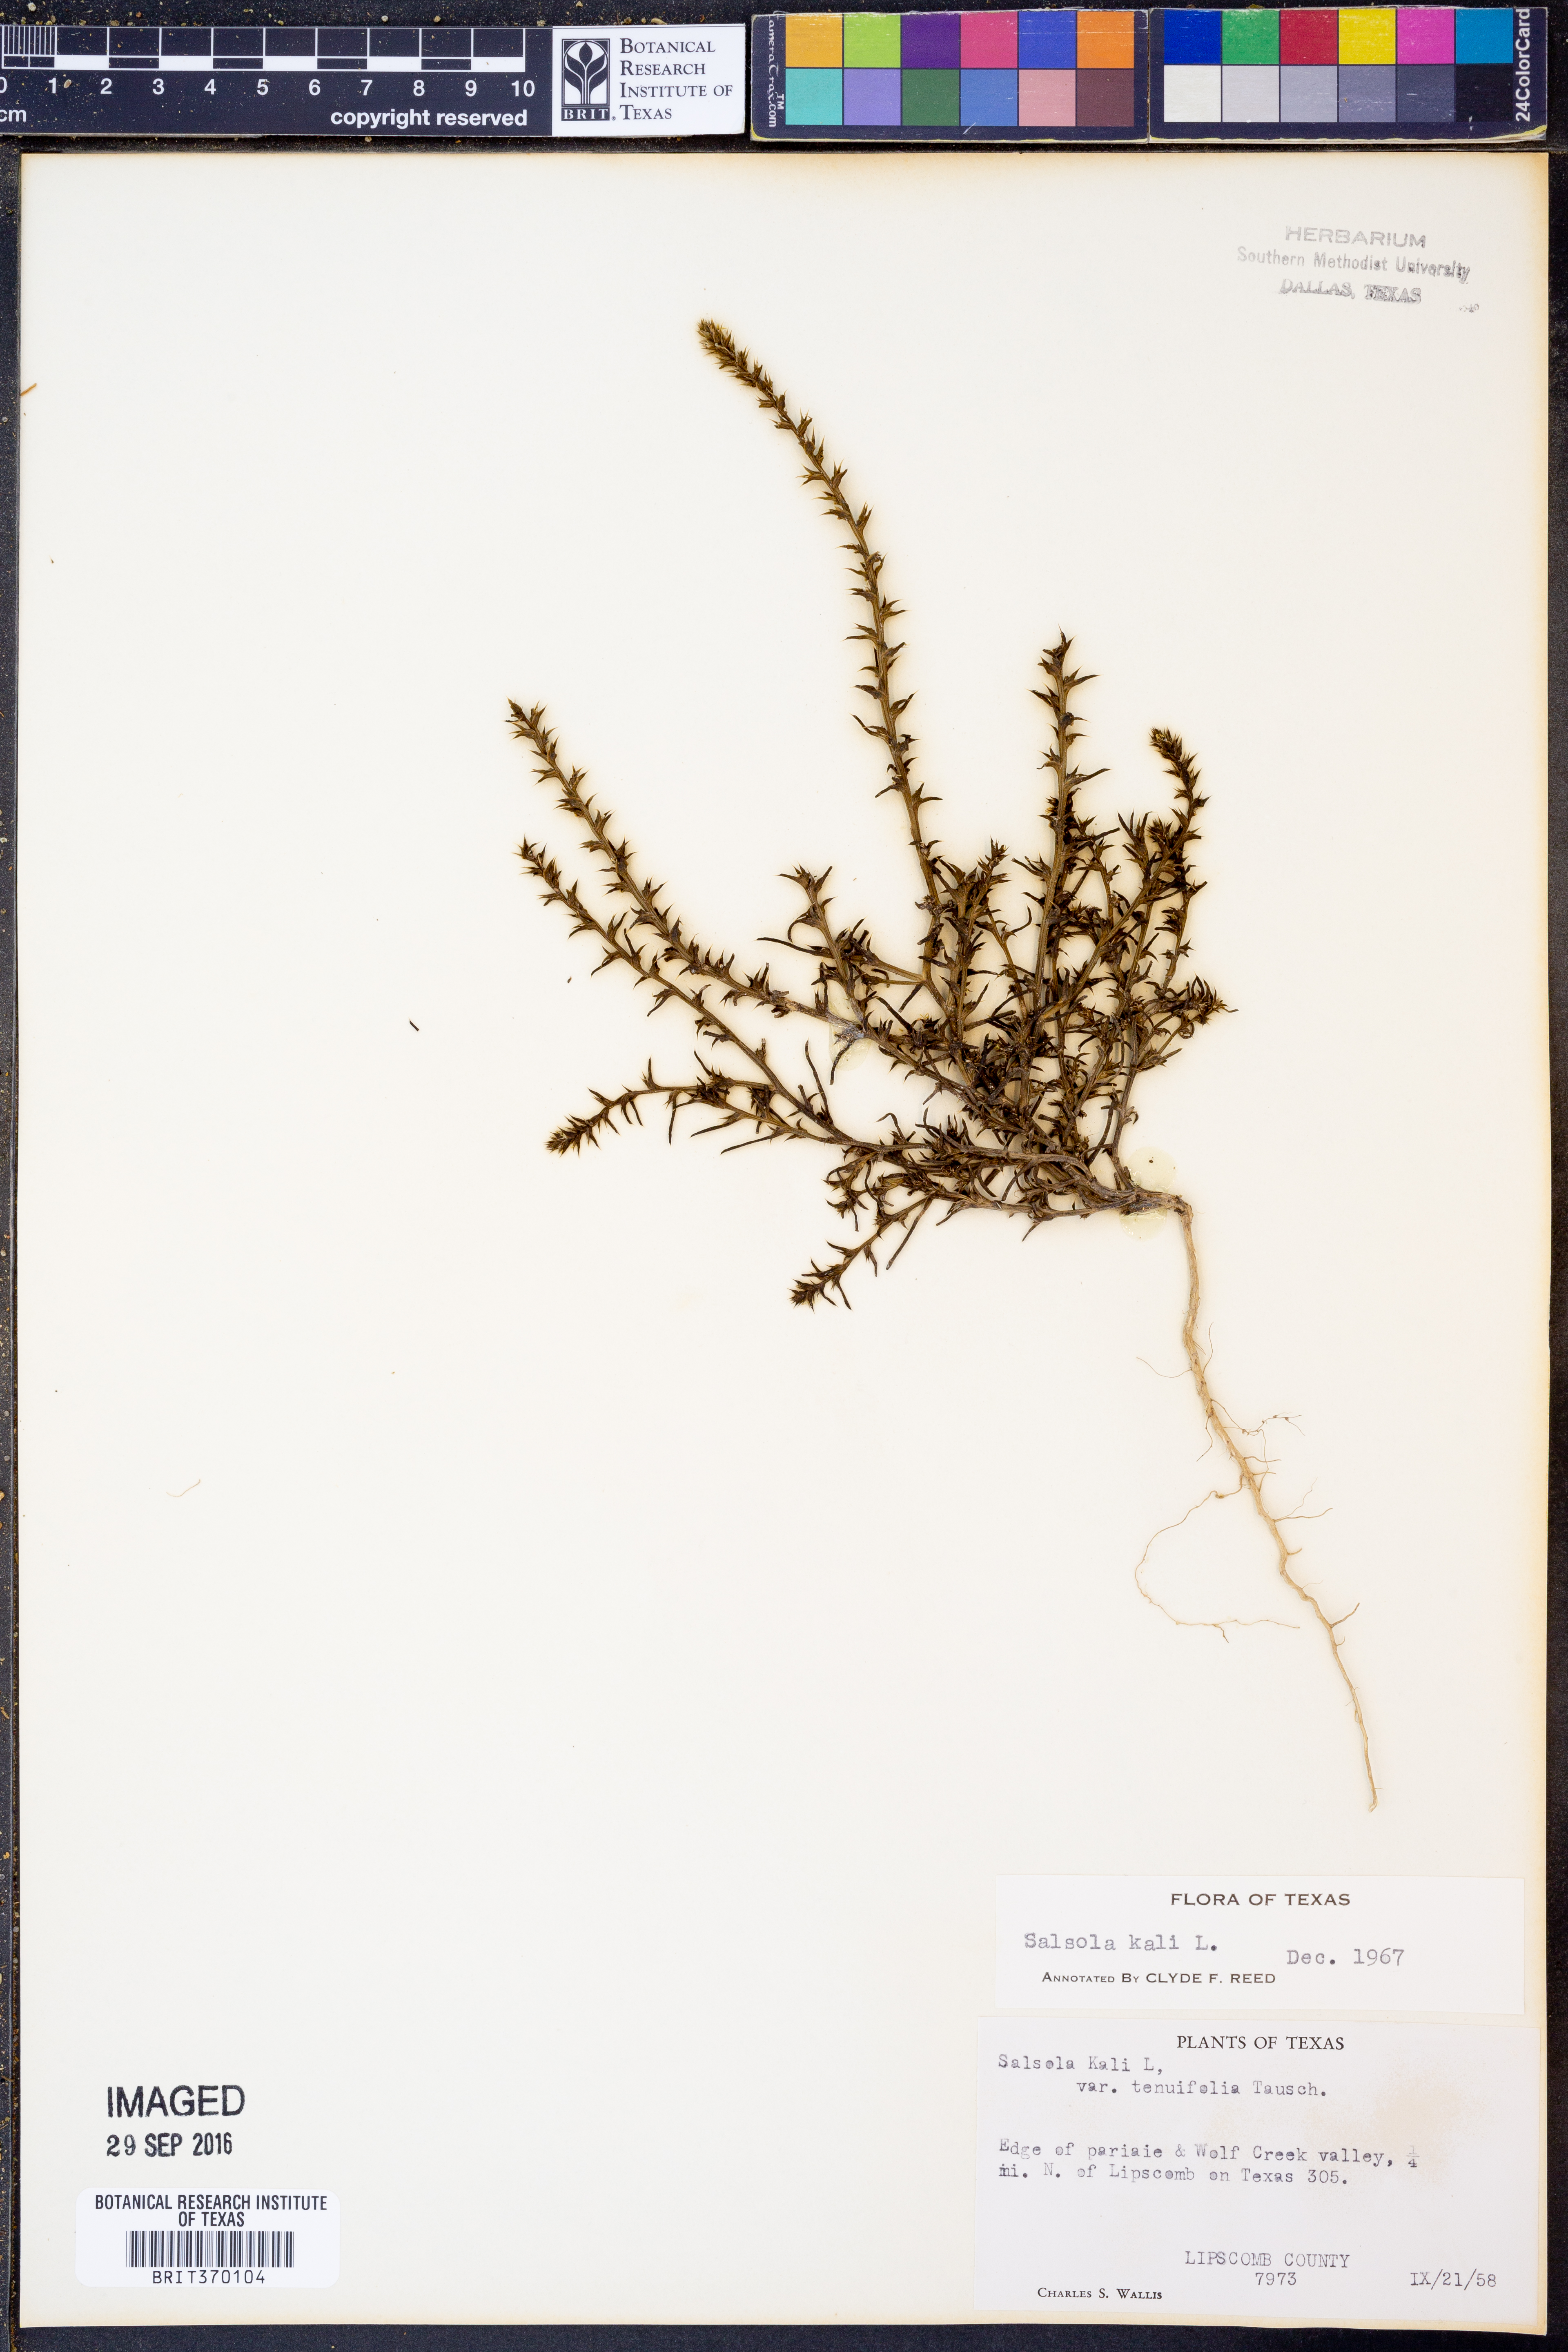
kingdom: Plantae
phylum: Tracheophyta
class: Magnoliopsida
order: Caryophyllales
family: Amaranthaceae
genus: Salsola
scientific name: Salsola kali
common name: Saltwort
